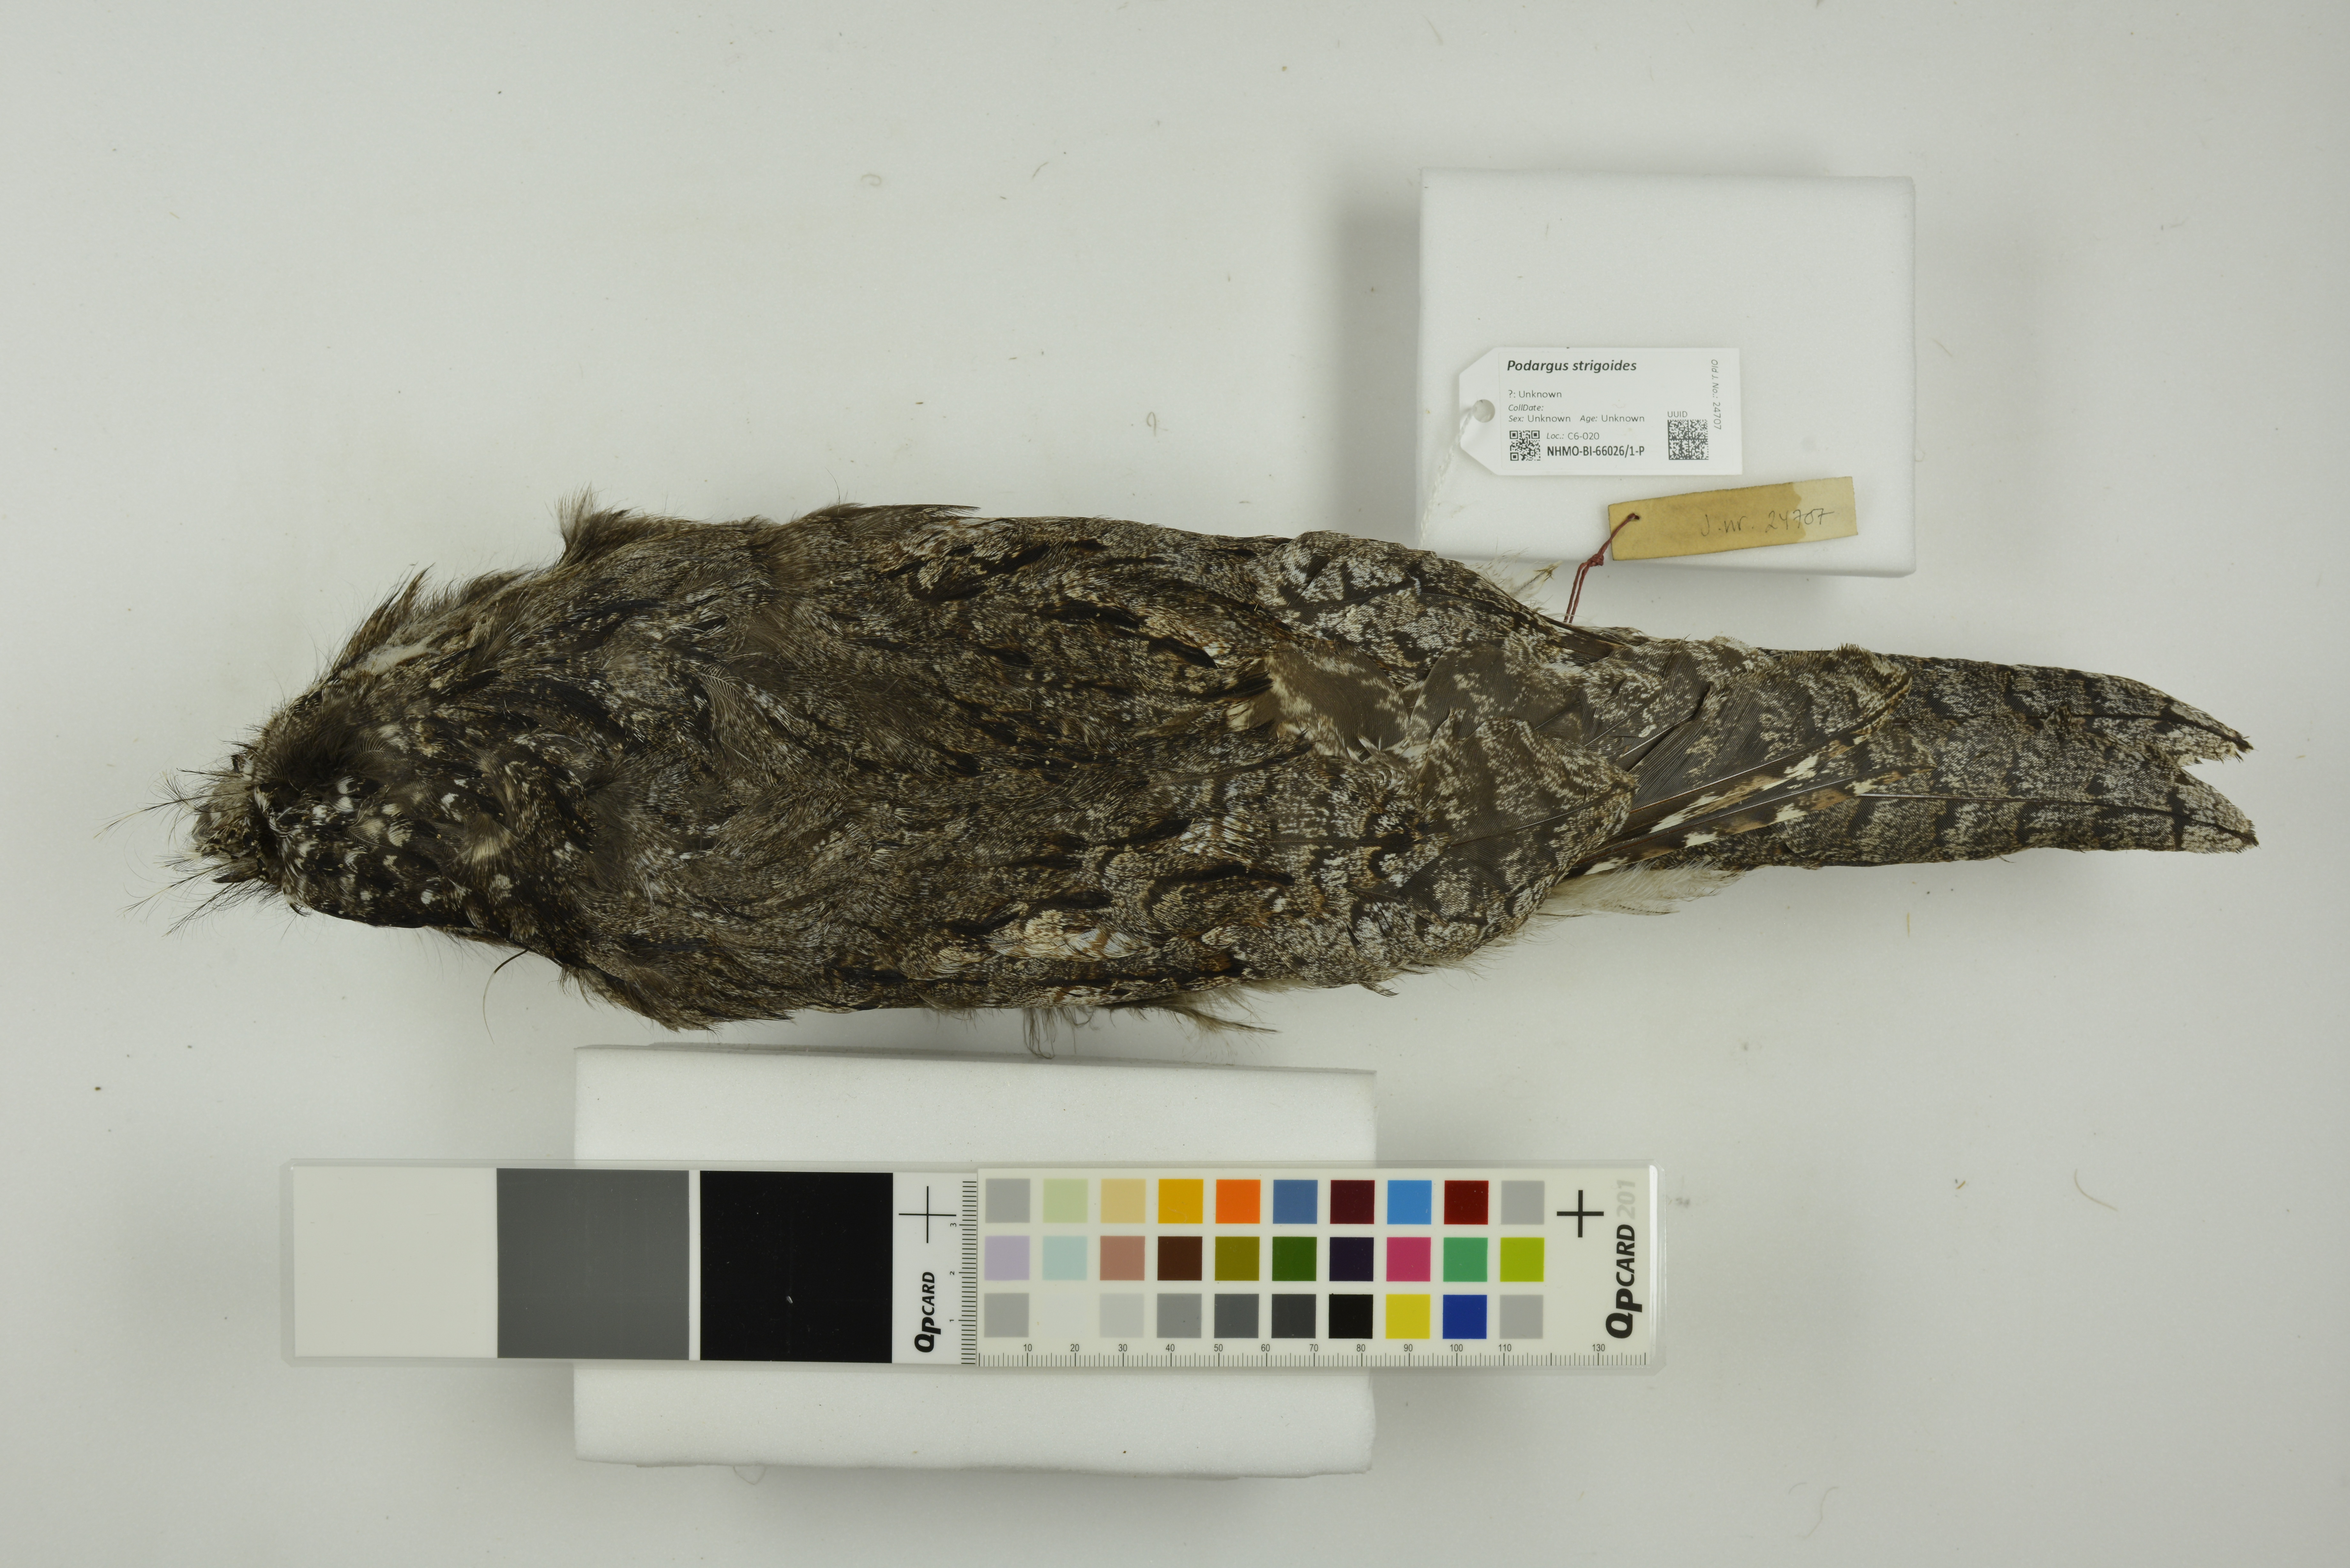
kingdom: Animalia
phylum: Chordata
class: Aves
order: Caprimulgiformes
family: Podargidae
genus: Podargus
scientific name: Podargus strigoides
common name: Tawny frogmouth
